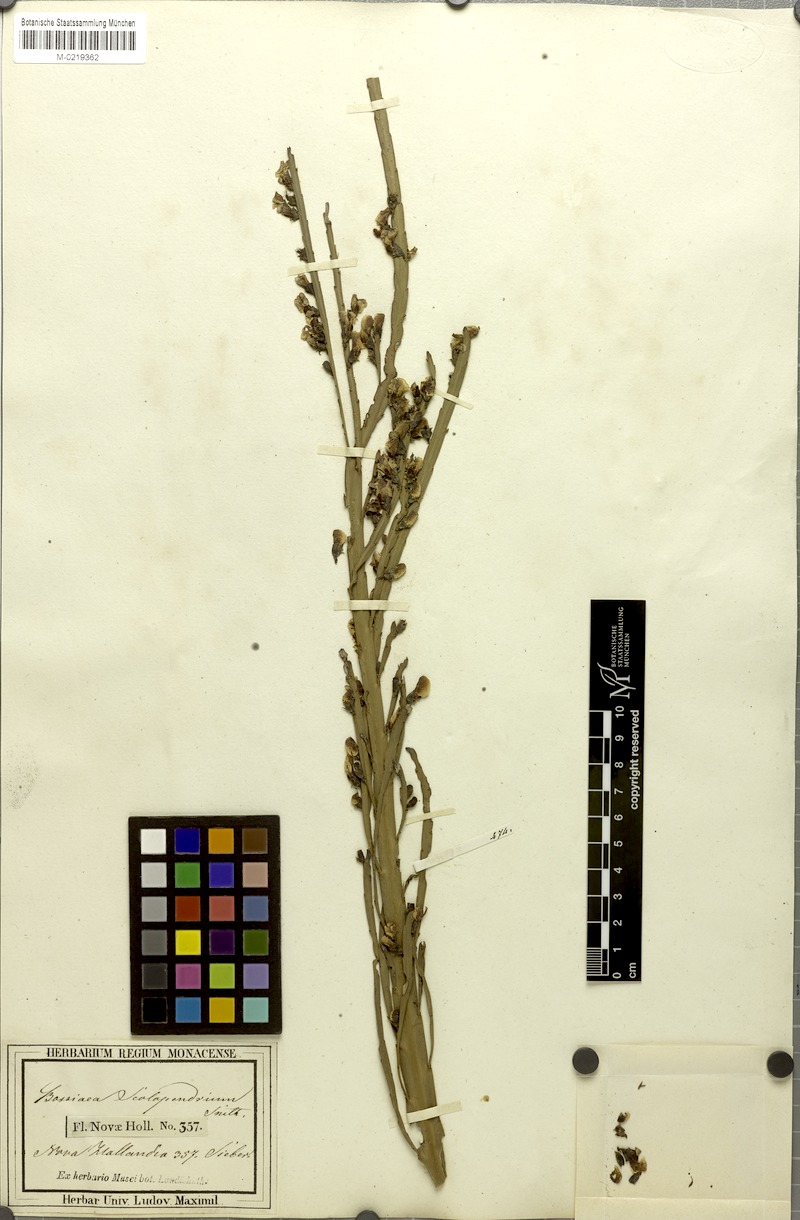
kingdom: Plantae
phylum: Tracheophyta
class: Magnoliopsida
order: Fabales
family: Fabaceae
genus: Bossiaea
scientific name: Bossiaea scolopendria
